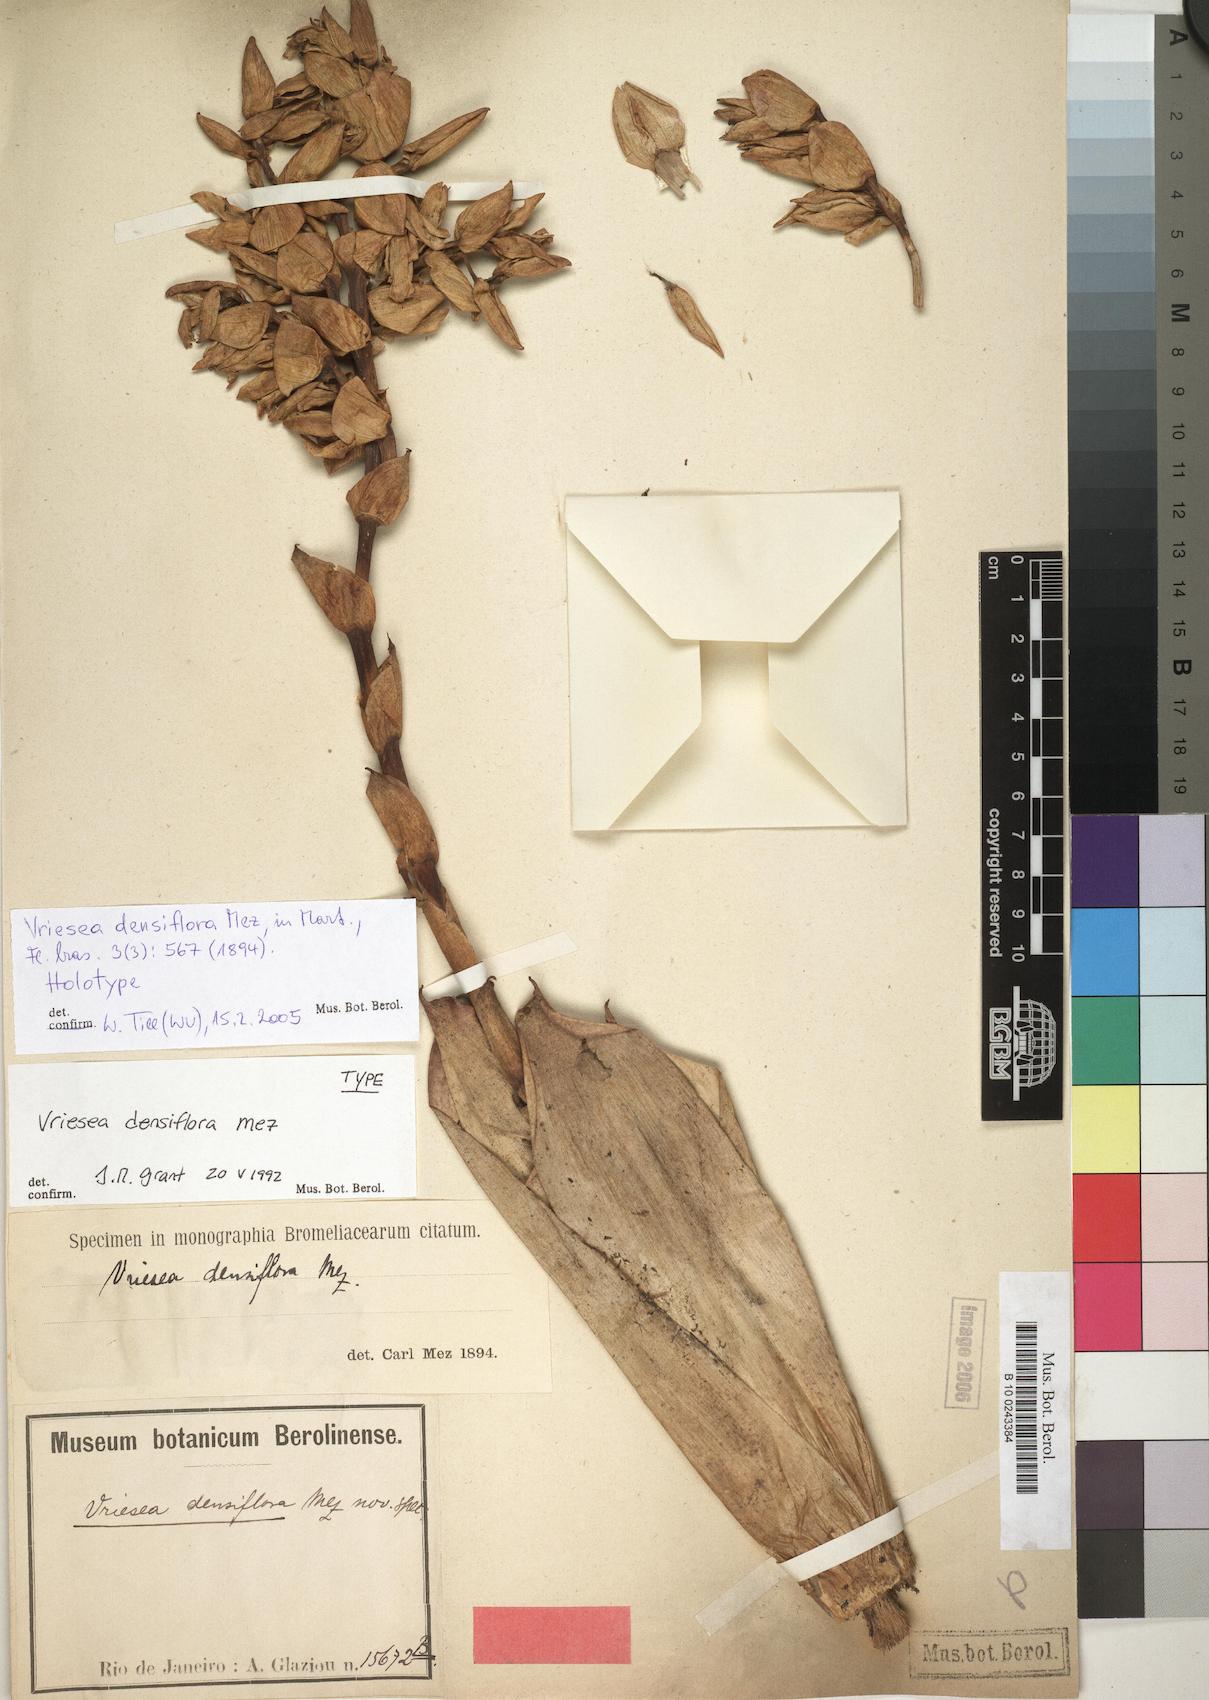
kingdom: Plantae
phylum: Tracheophyta
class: Liliopsida
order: Poales
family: Bromeliaceae
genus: Vriesea
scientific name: Vriesea densiflora
